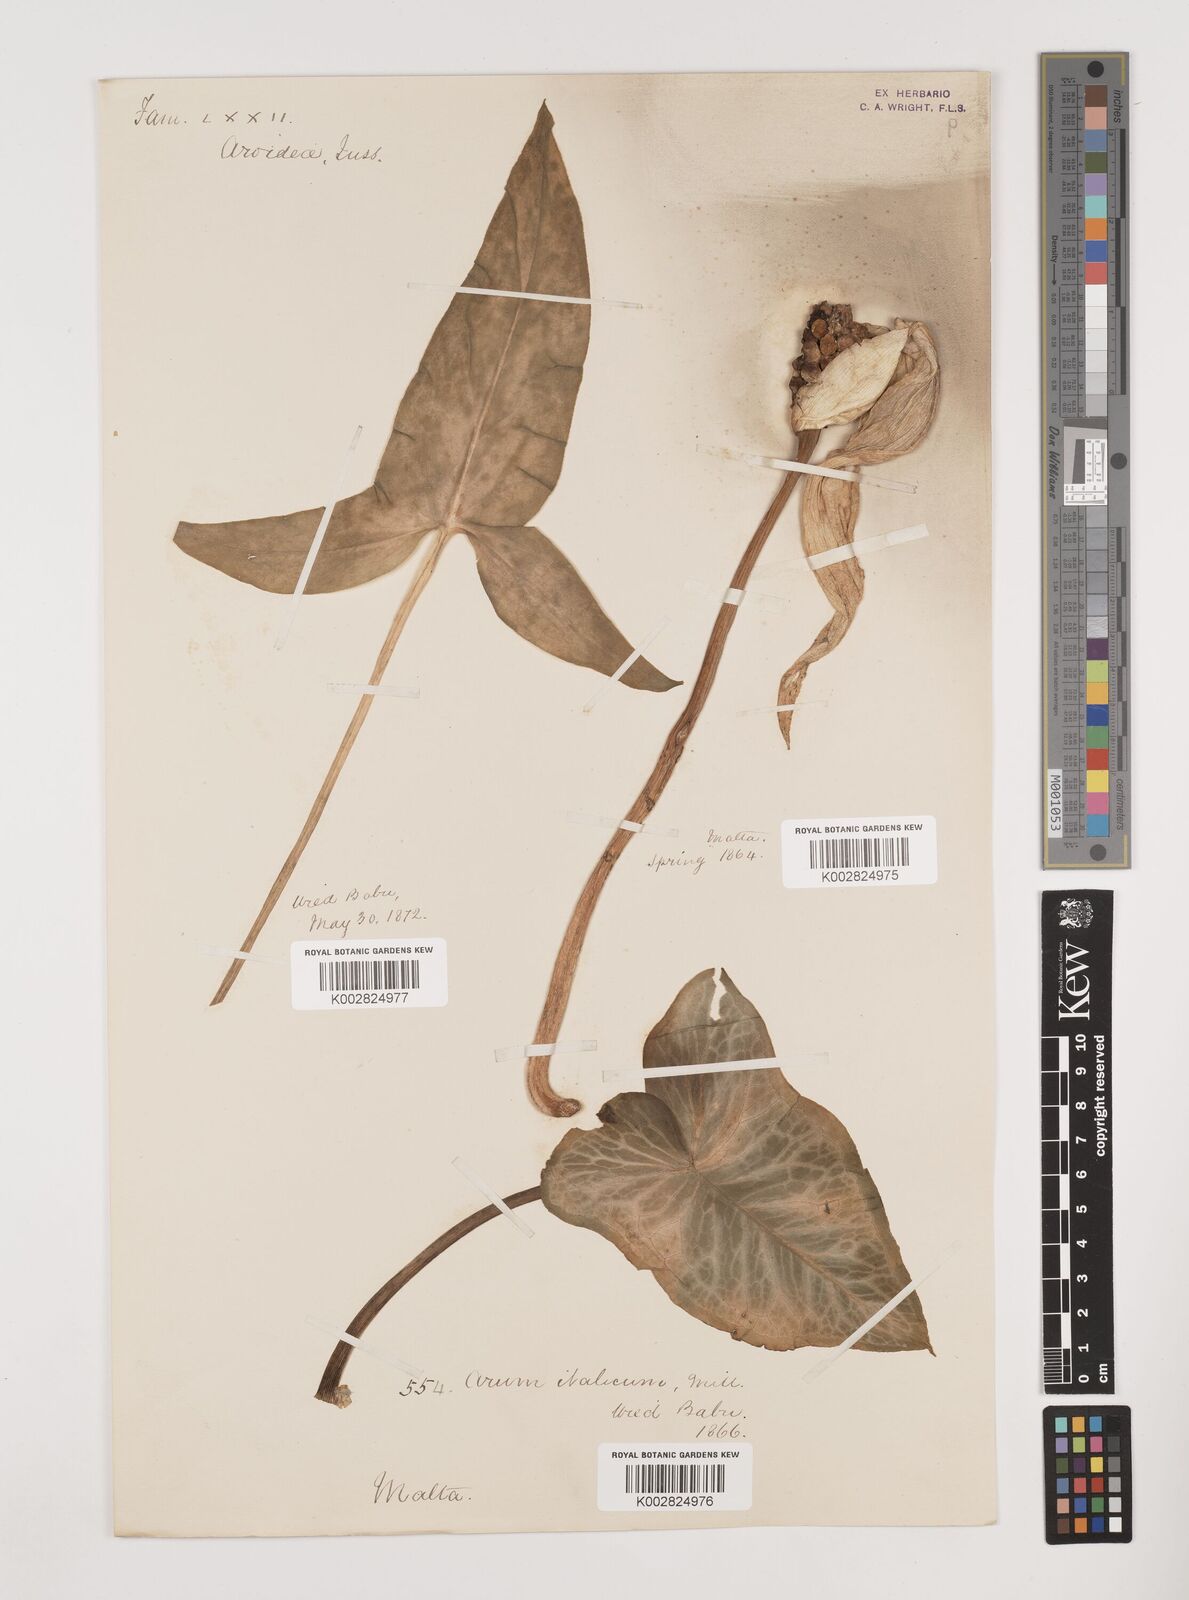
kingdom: Plantae
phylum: Tracheophyta
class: Liliopsida
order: Alismatales
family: Araceae
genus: Arum
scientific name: Arum italicum
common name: Italian lords-and-ladies
